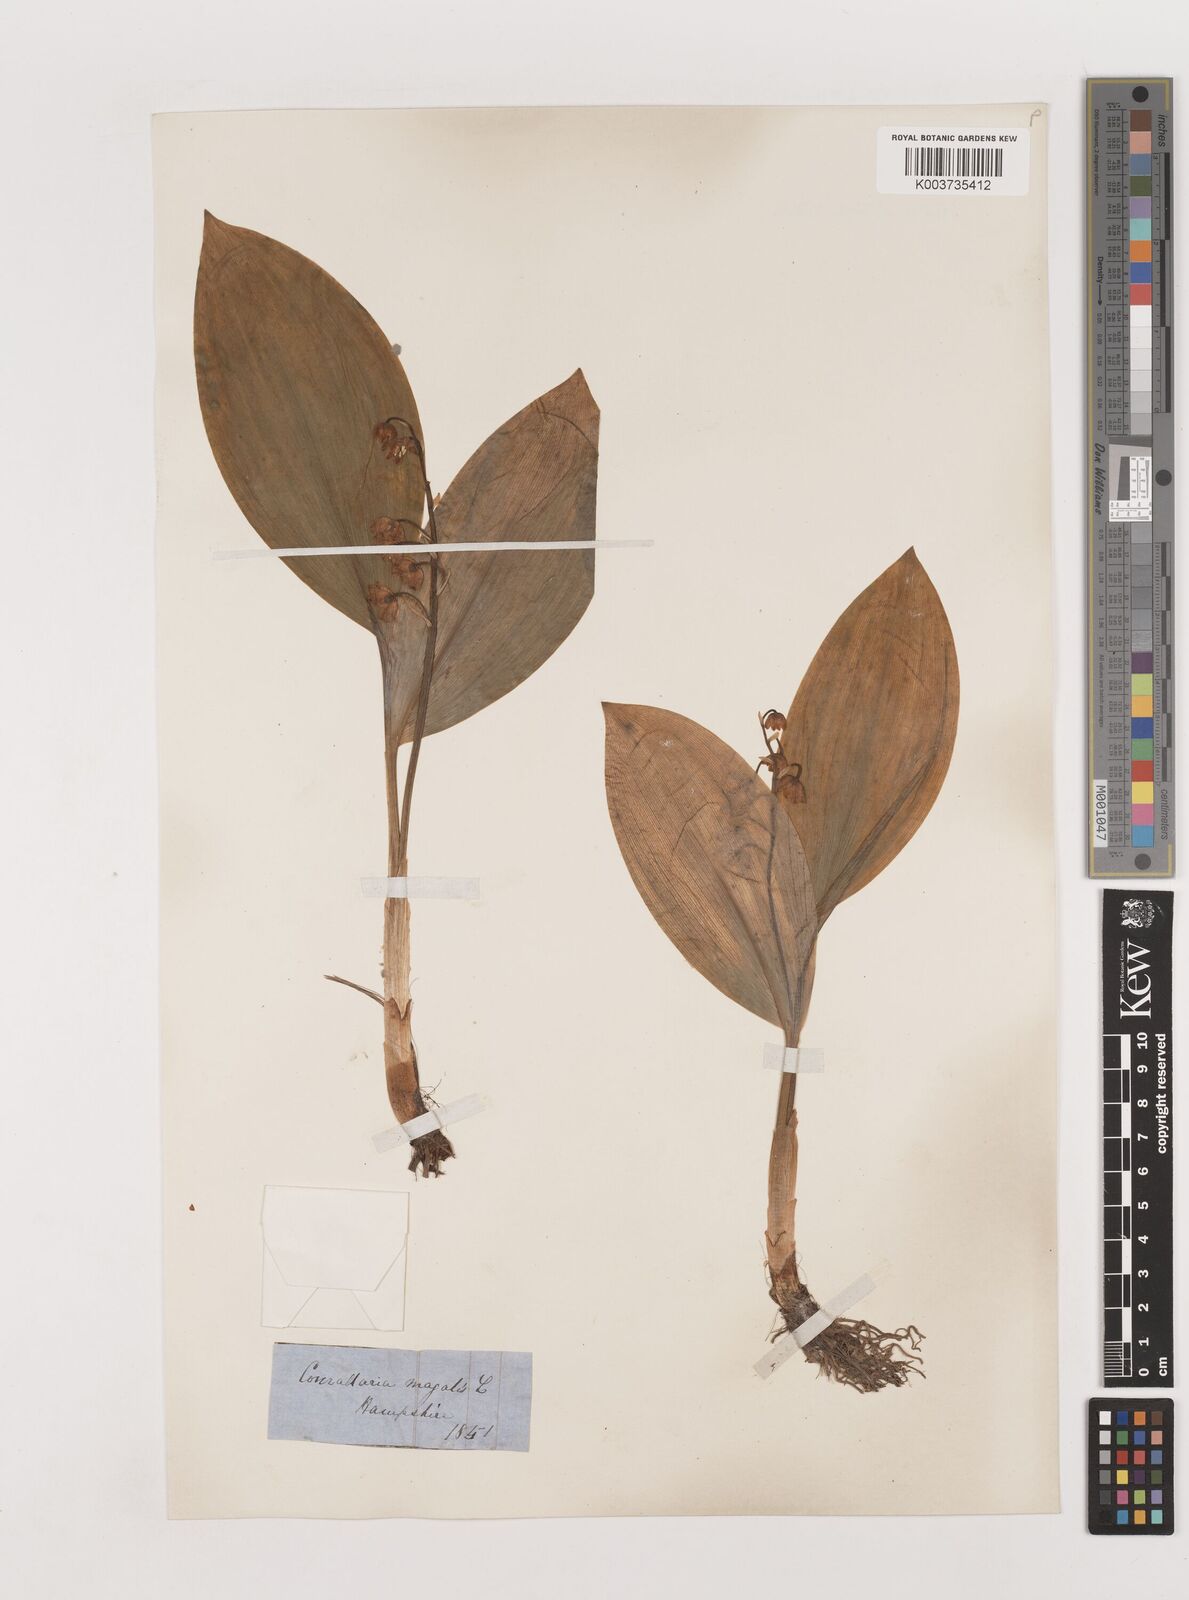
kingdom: Plantae
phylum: Tracheophyta
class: Liliopsida
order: Asparagales
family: Asparagaceae
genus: Convallaria
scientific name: Convallaria majalis
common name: Lily-of-the-valley
